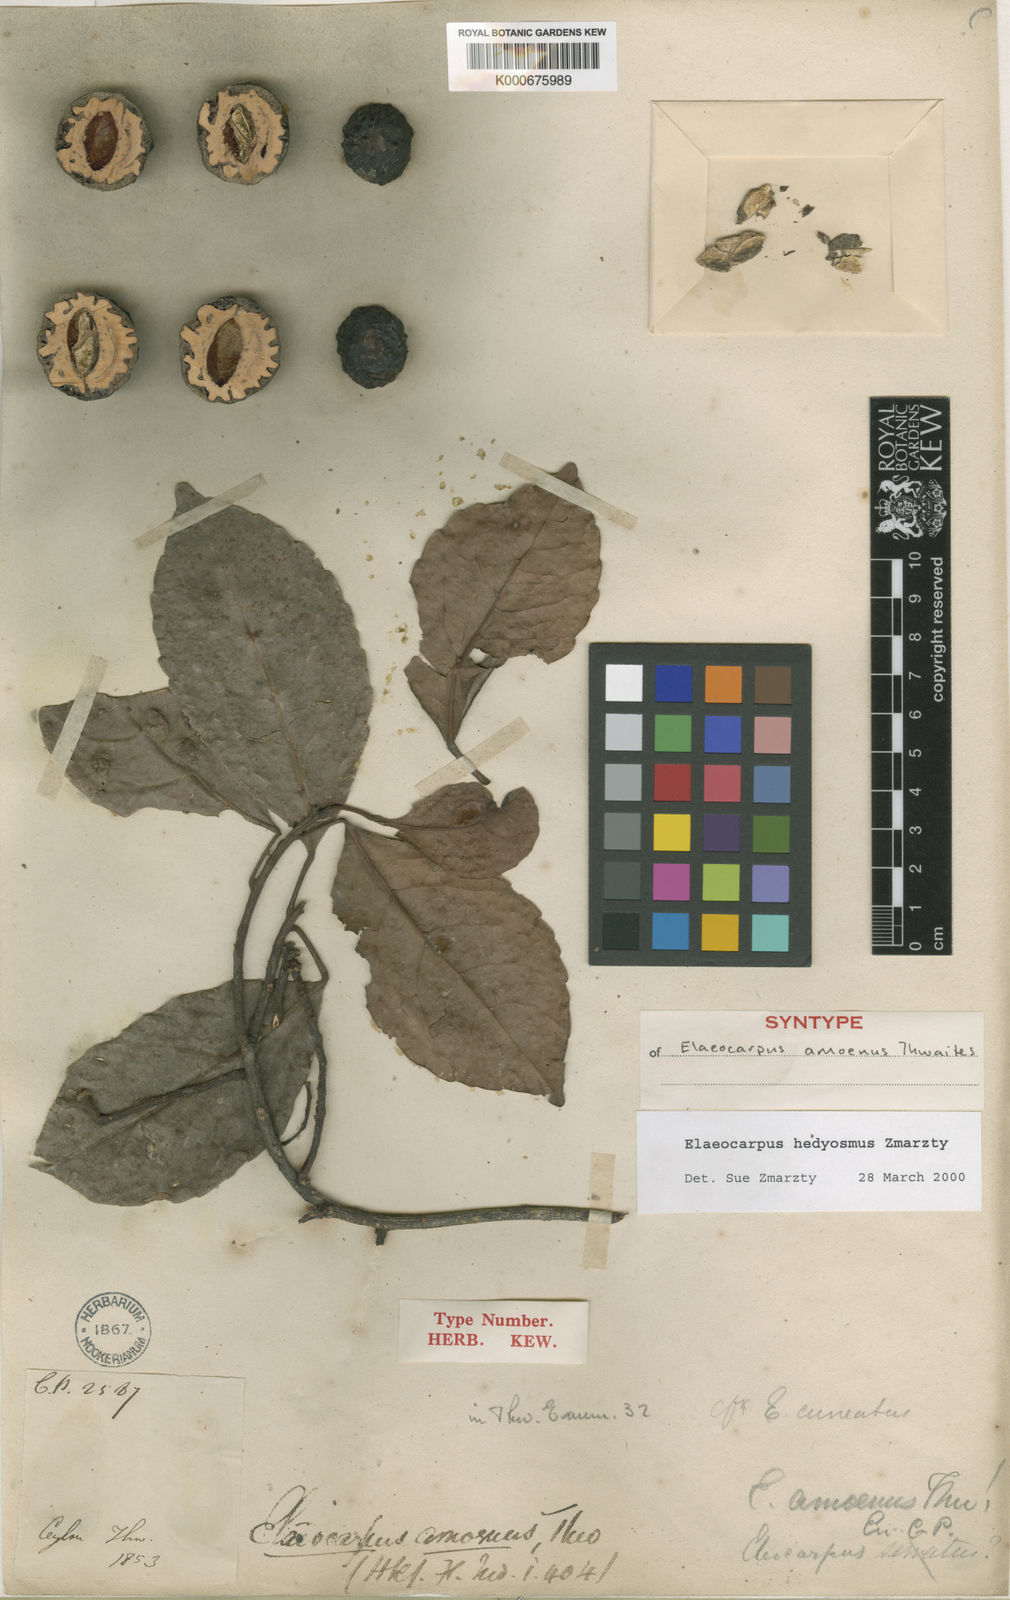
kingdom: Plantae
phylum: Tracheophyta
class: Magnoliopsida
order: Oxalidales
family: Elaeocarpaceae
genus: Elaeocarpus
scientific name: Elaeocarpus hedyosmus
